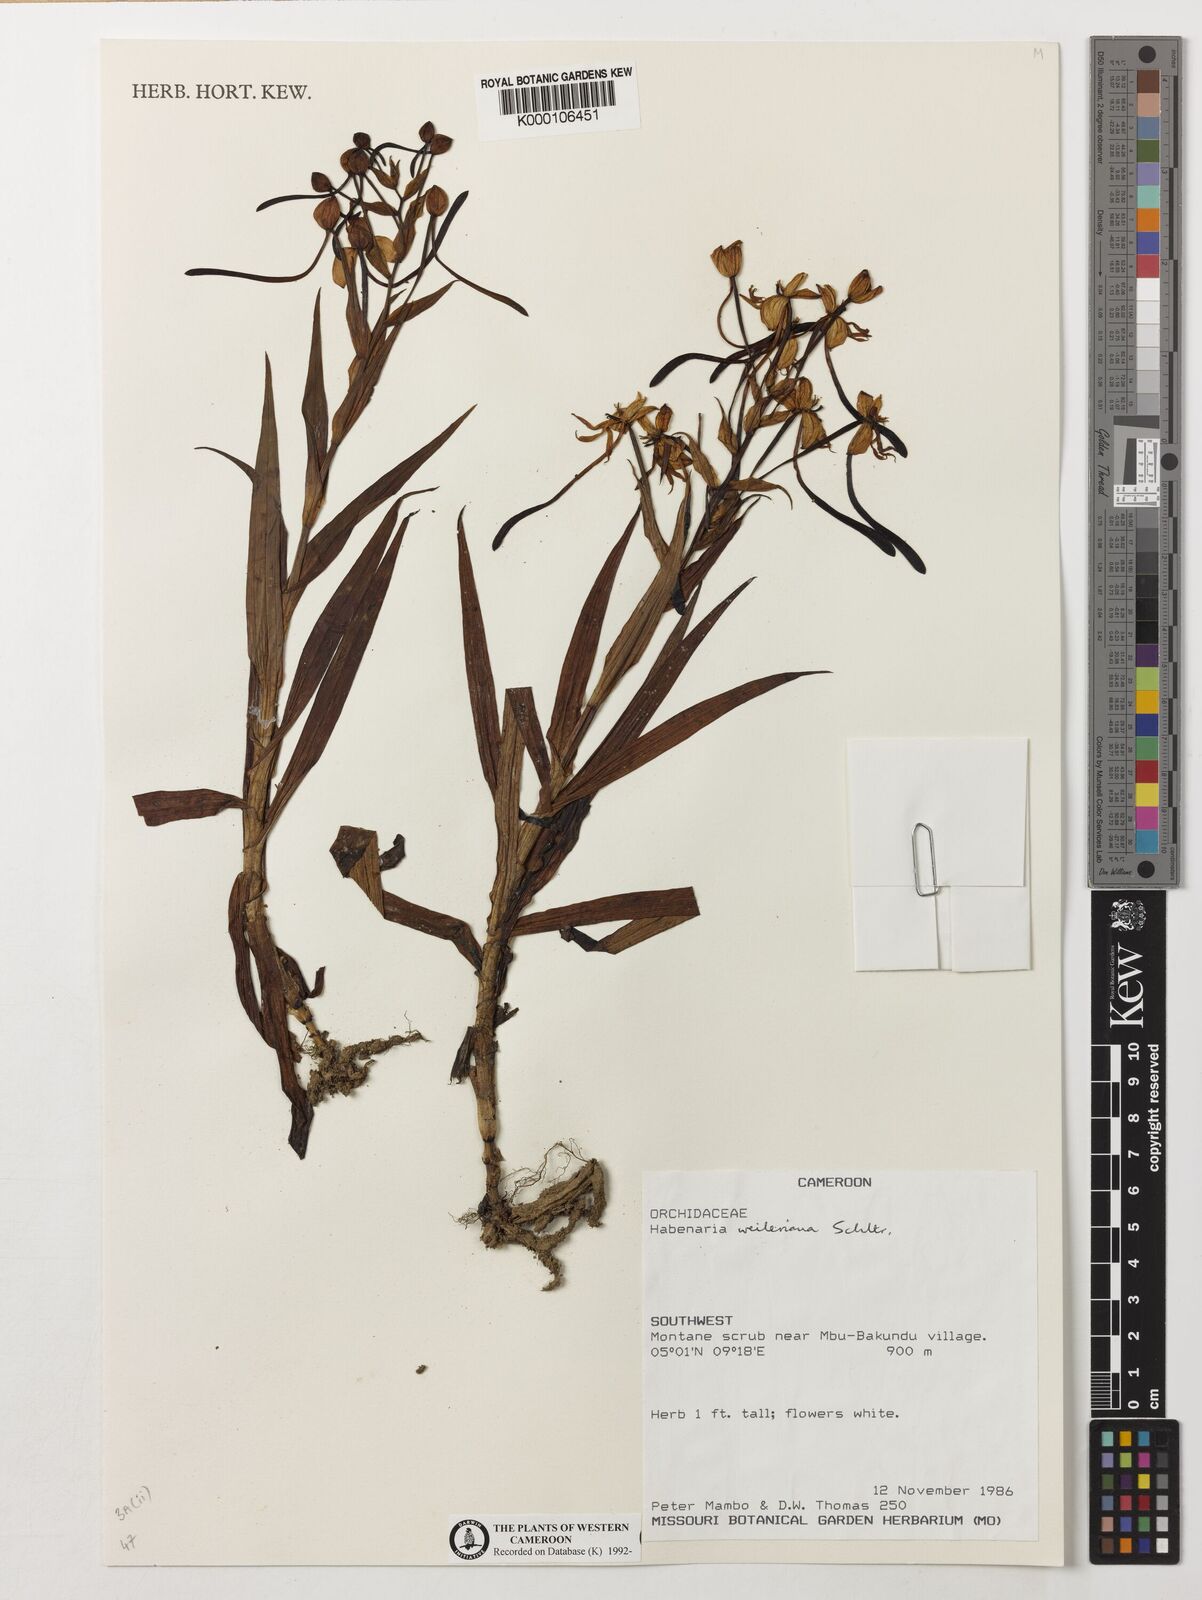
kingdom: Plantae
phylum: Tracheophyta
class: Liliopsida
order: Asparagales
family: Orchidaceae
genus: Habenaria
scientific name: Habenaria weileriana
